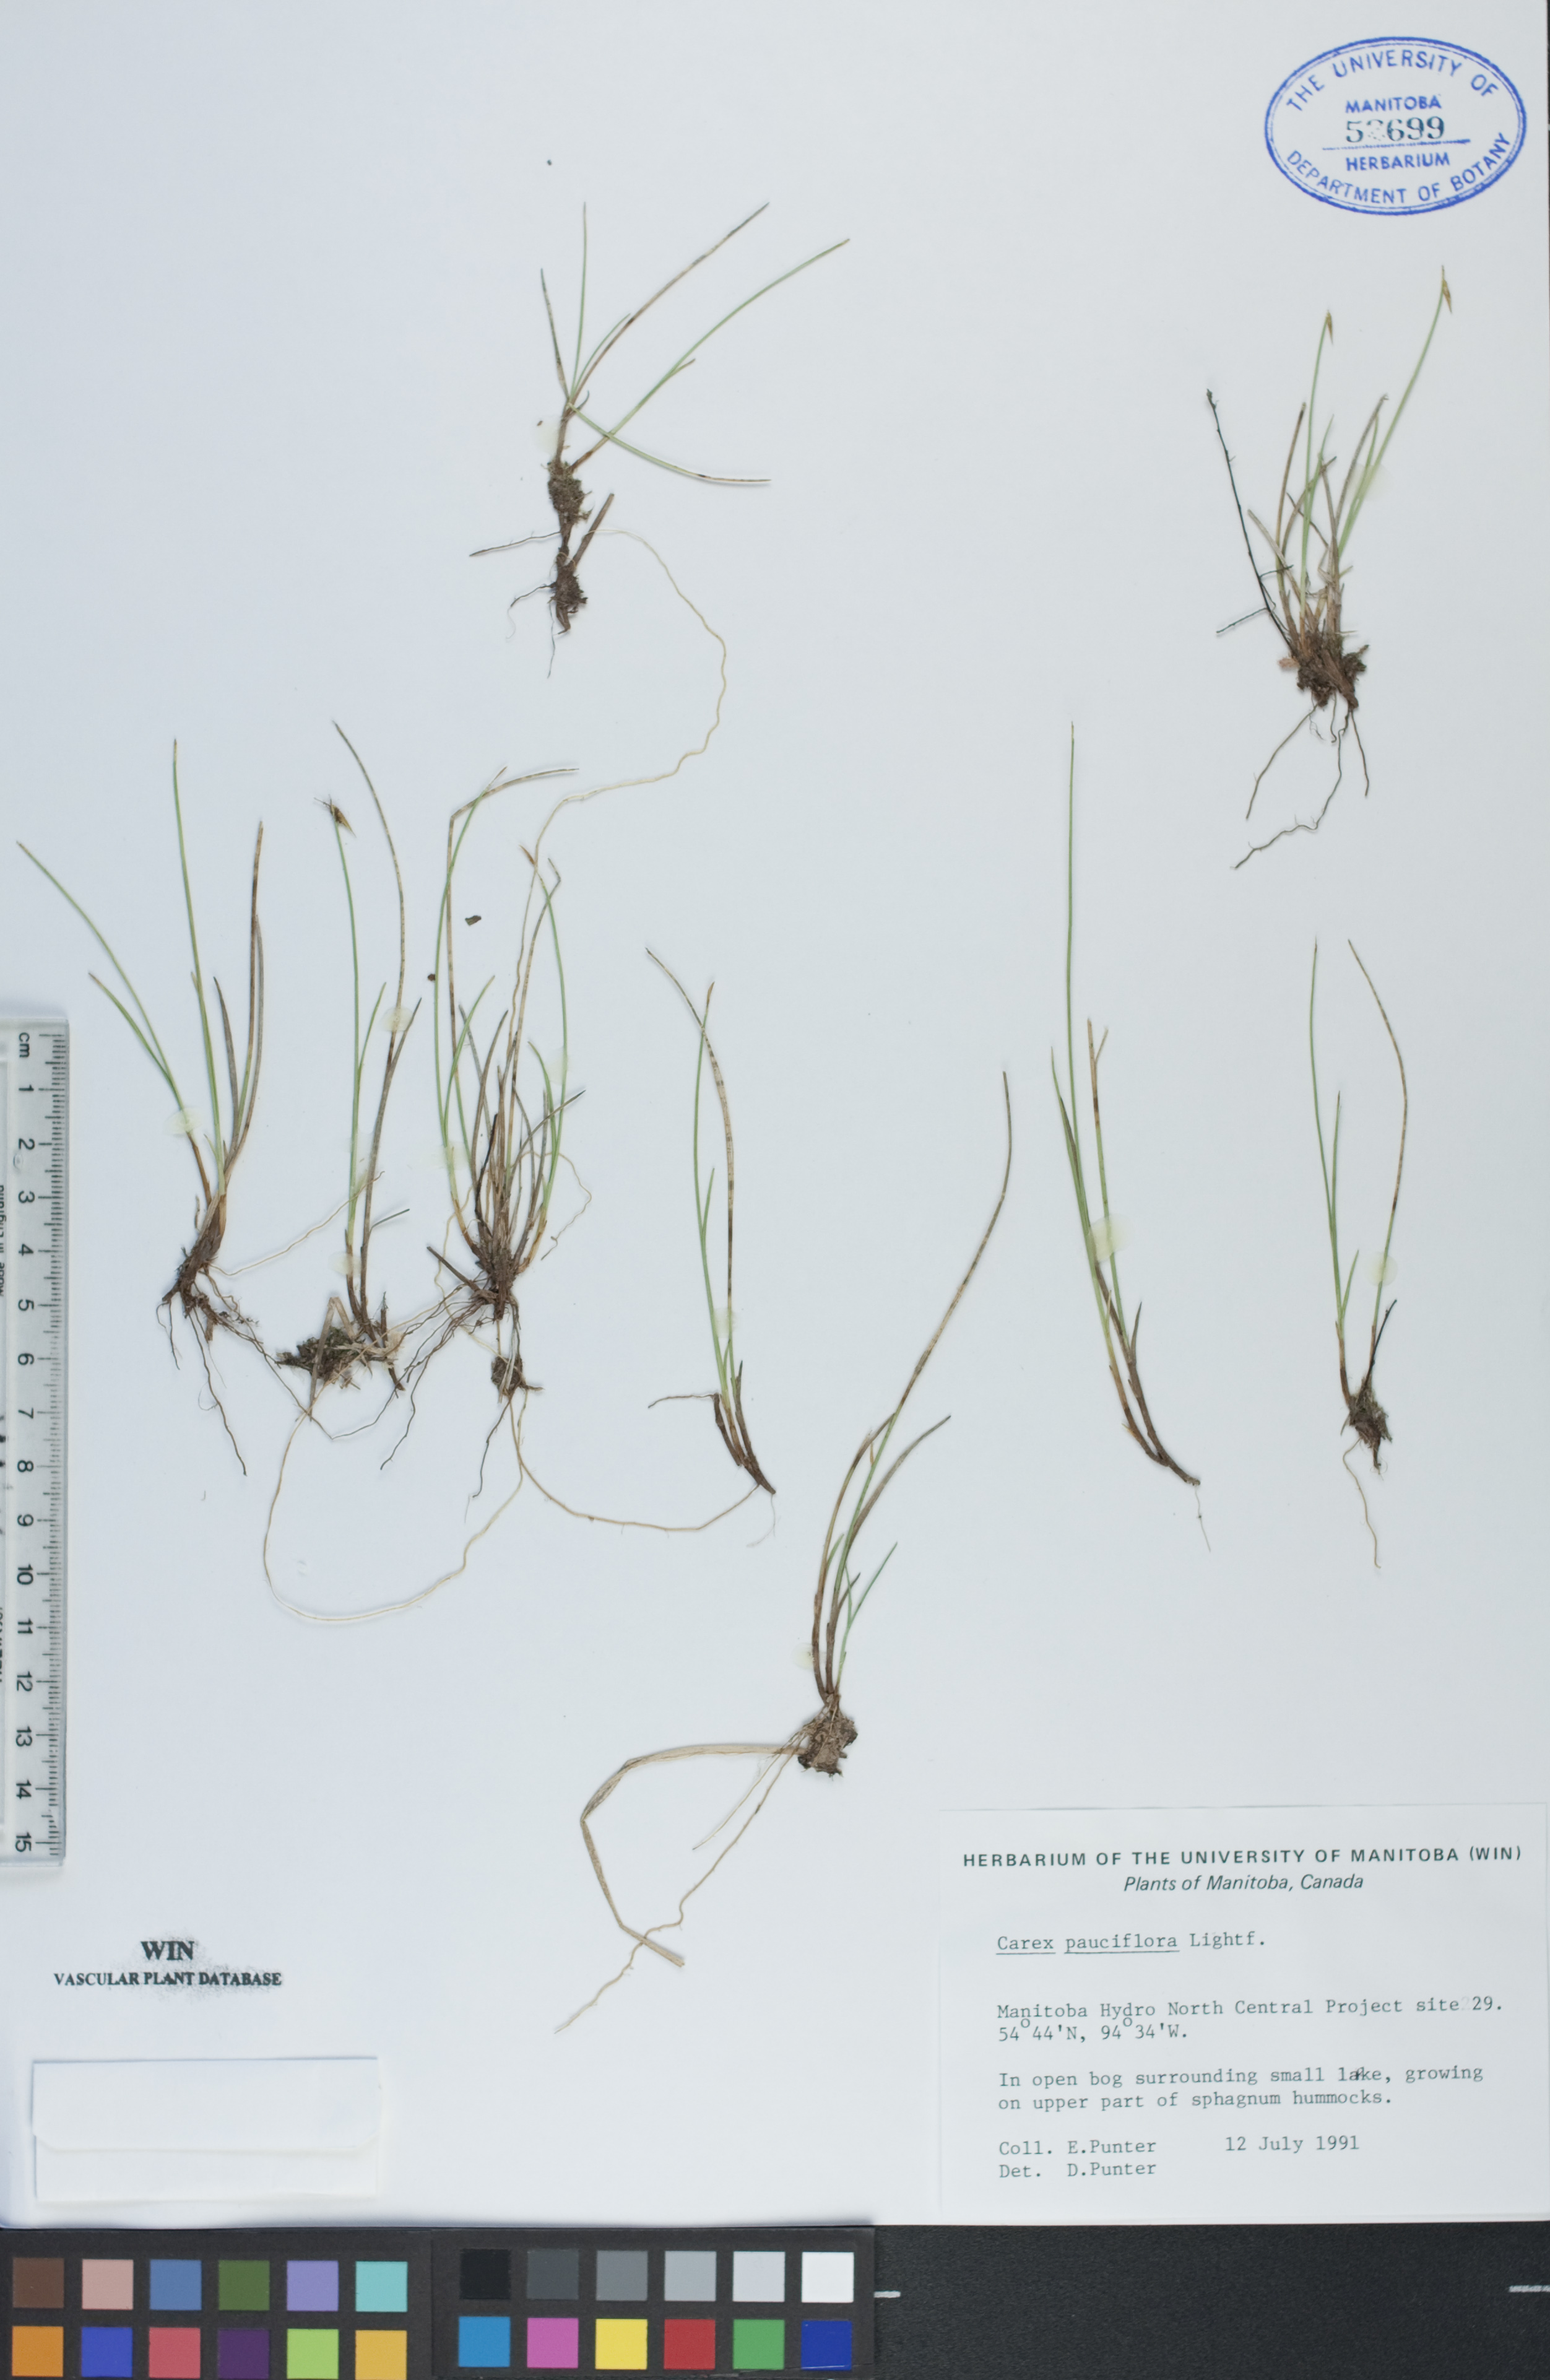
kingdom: Plantae
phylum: Tracheophyta
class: Liliopsida
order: Poales
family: Cyperaceae
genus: Carex
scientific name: Carex pauciflora
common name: Few-flowered sedge
